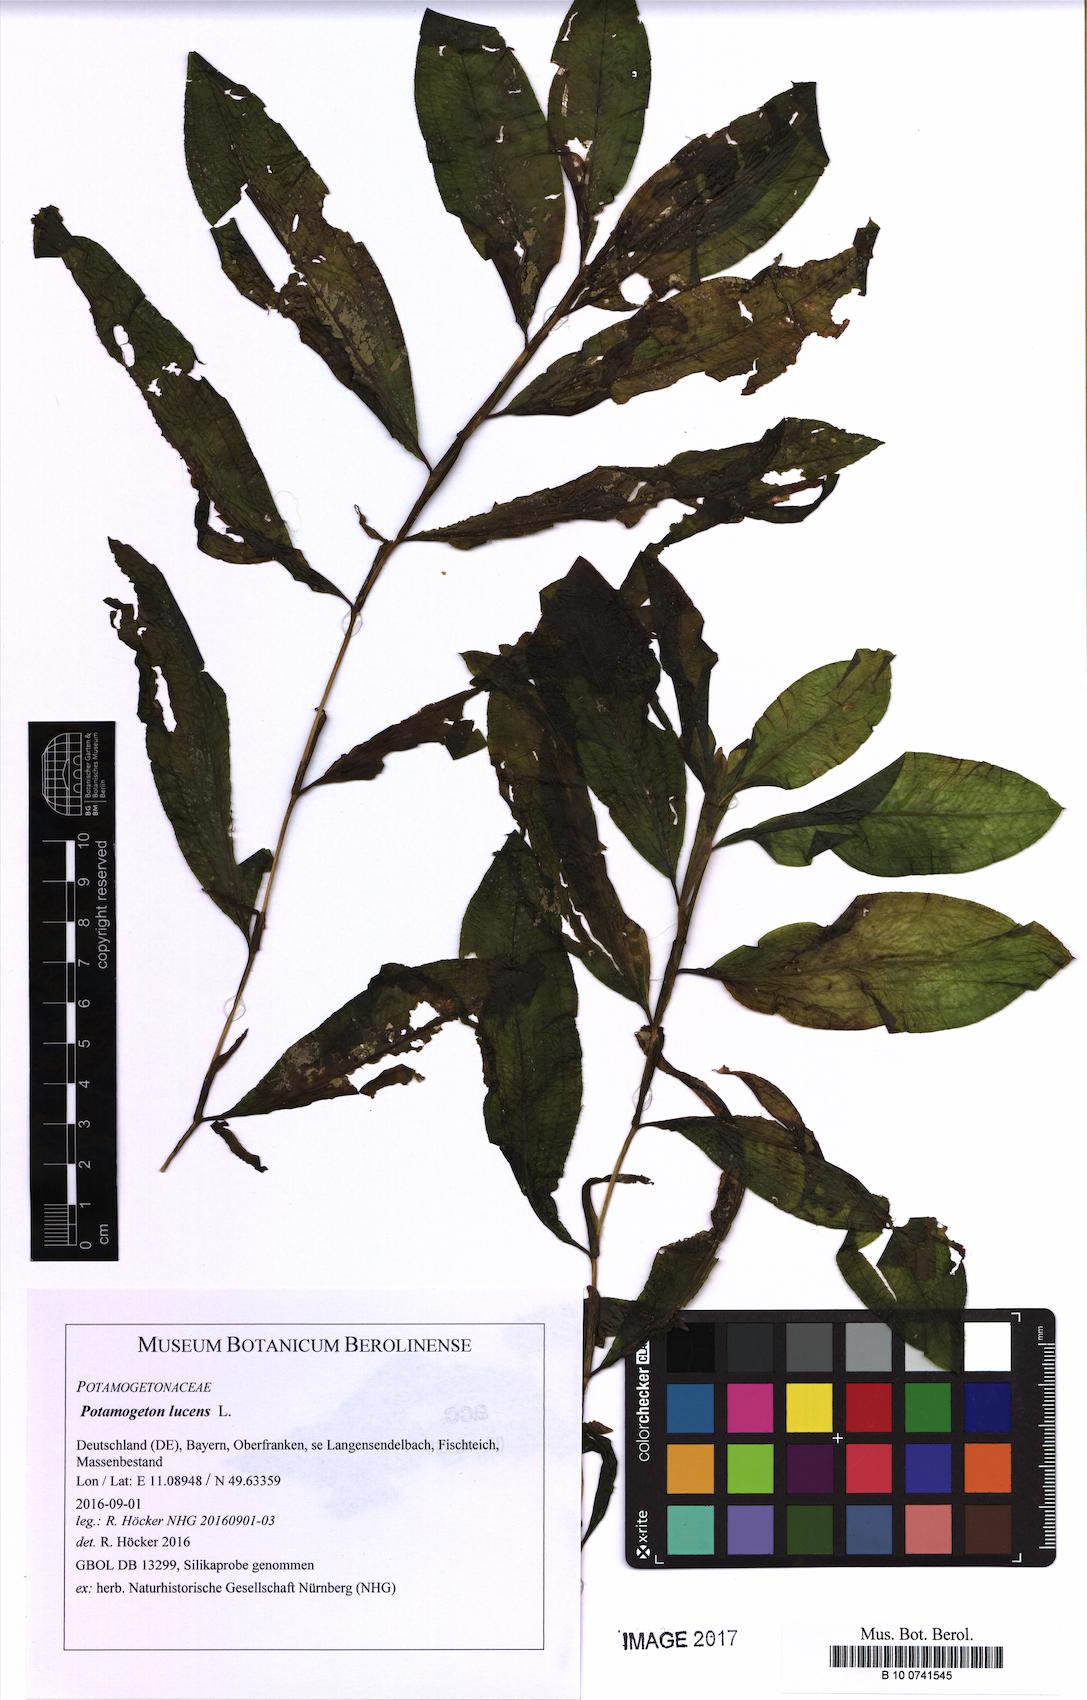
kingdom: Plantae
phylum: Tracheophyta
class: Liliopsida
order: Alismatales
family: Potamogetonaceae
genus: Potamogeton
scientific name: Potamogeton lucens
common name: Shining pondweed
